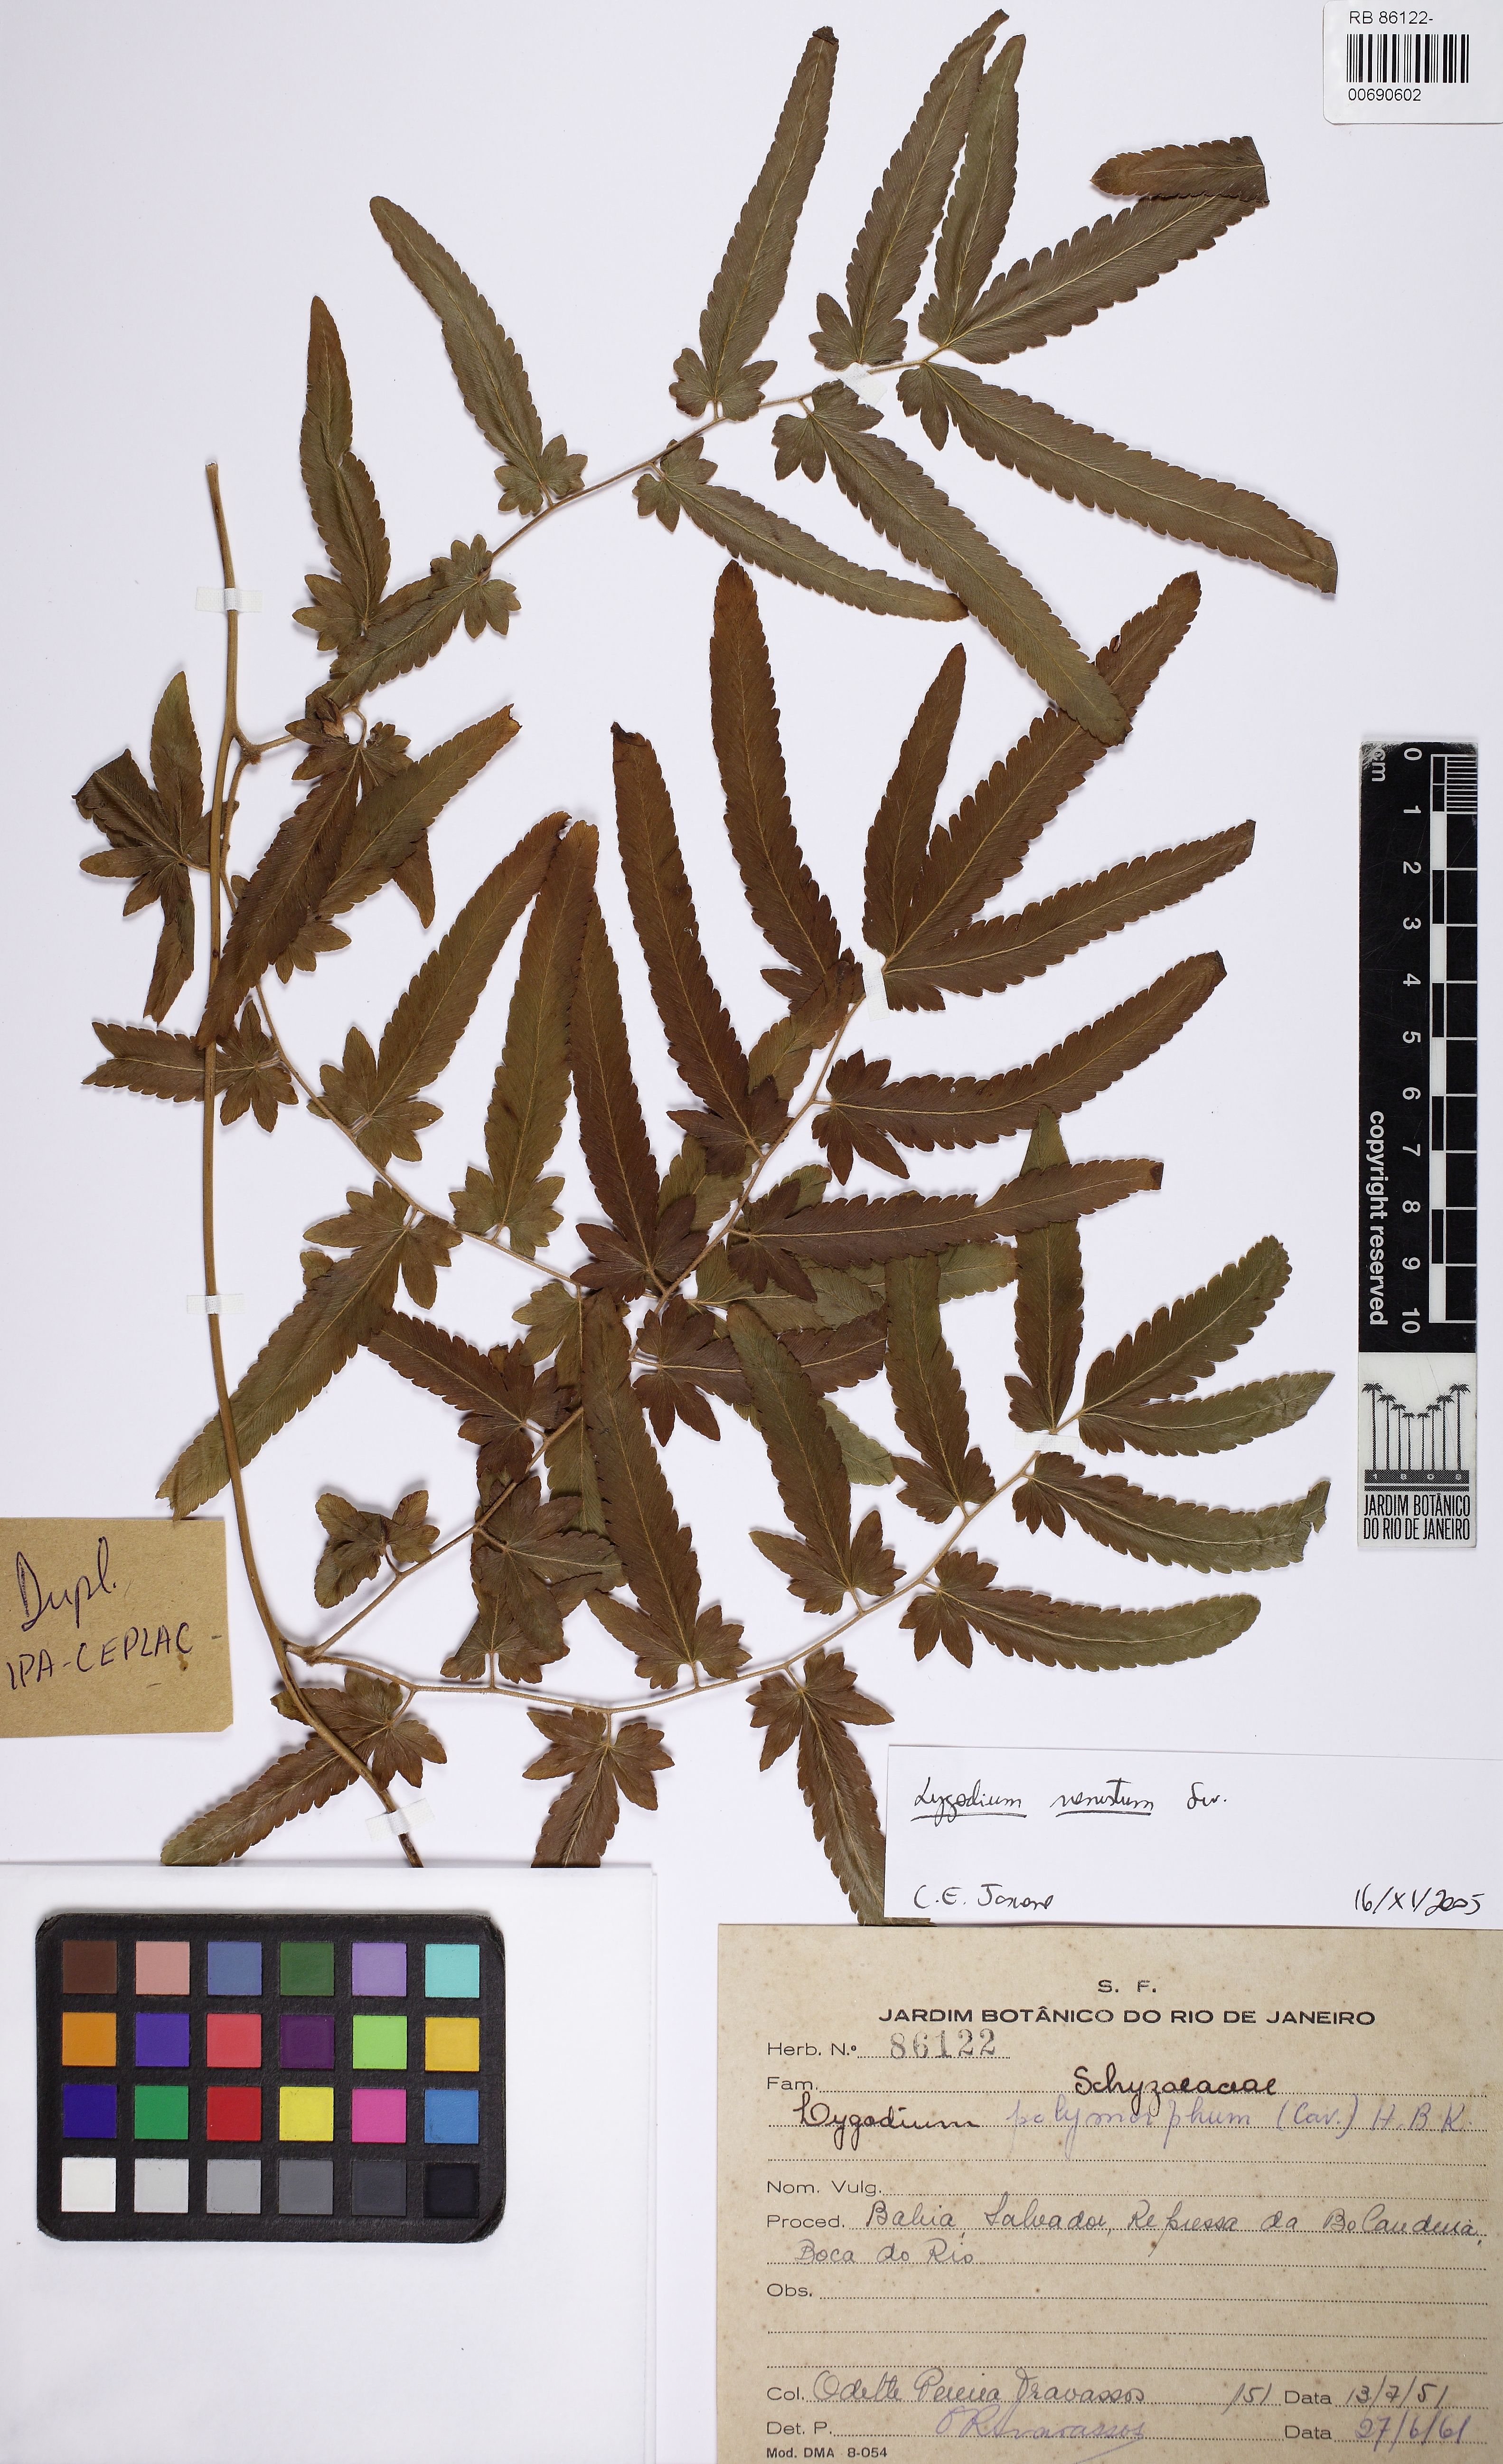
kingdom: Plantae
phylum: Tracheophyta
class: Polypodiopsida
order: Schizaeales
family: Lygodiaceae
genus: Lygodium
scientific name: Lygodium venustum
